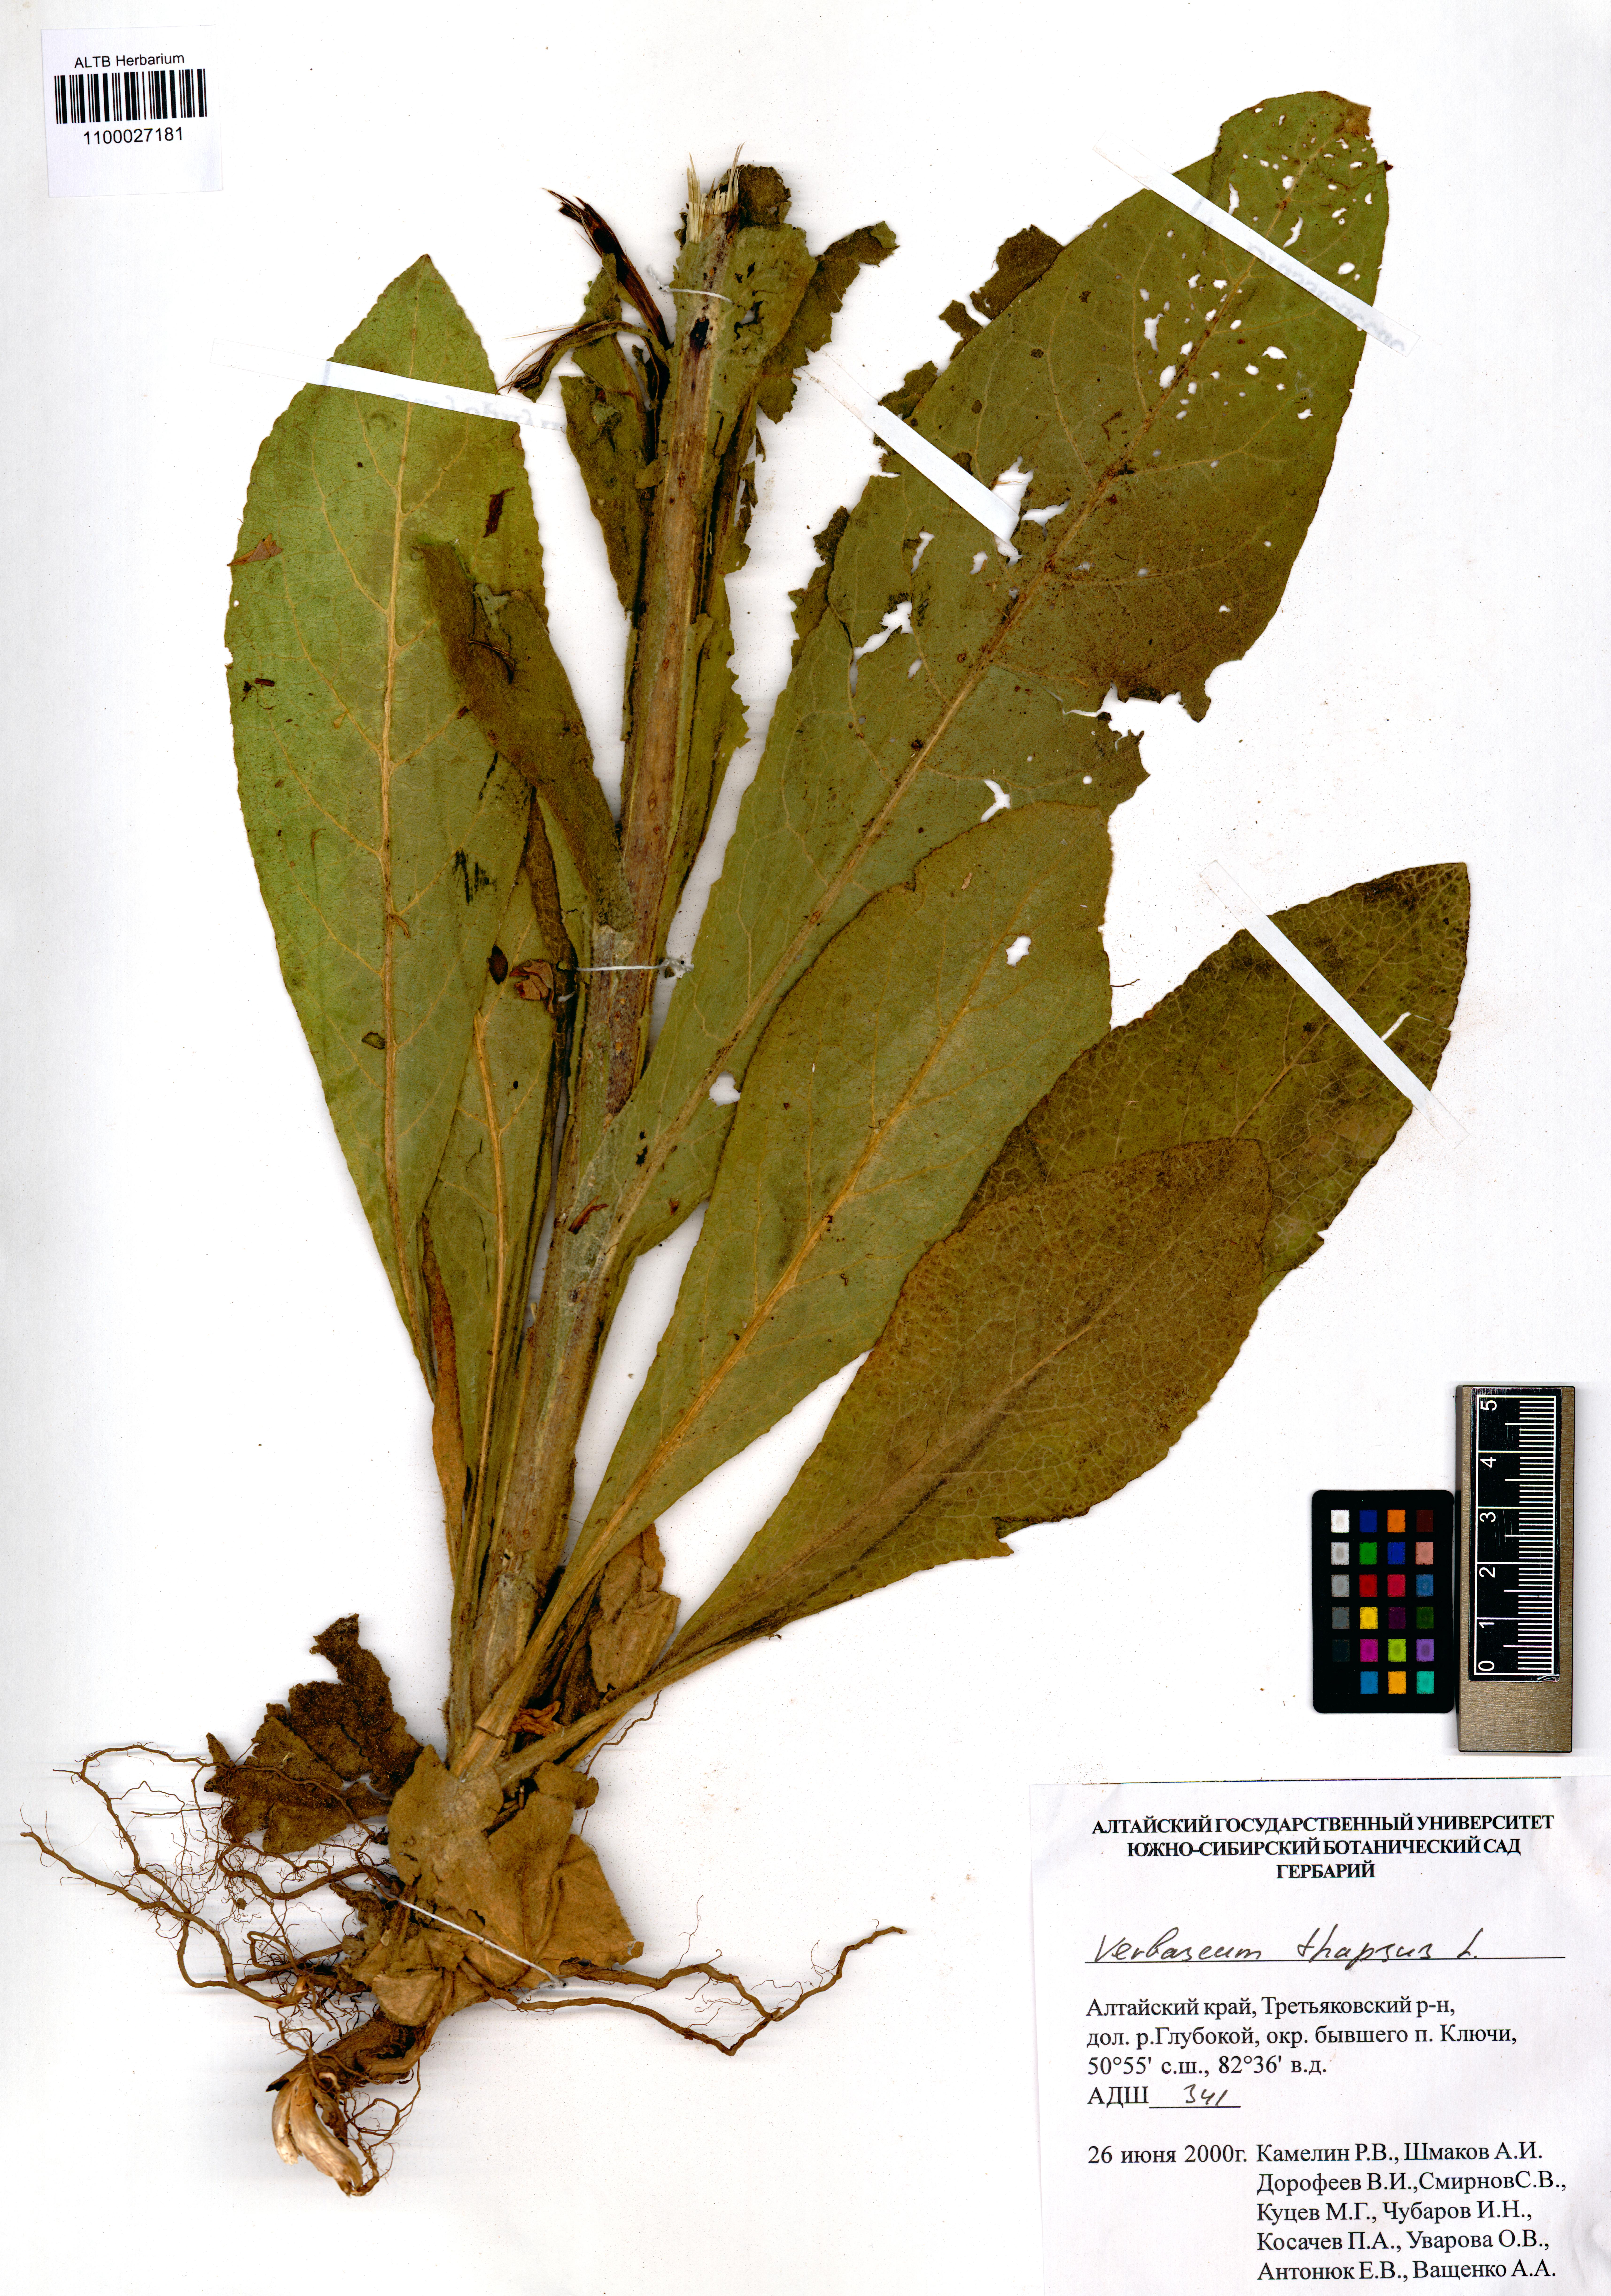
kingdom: Plantae
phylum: Tracheophyta
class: Magnoliopsida
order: Lamiales
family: Scrophulariaceae
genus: Verbascum
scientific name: Verbascum thapsus
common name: Common mullein
